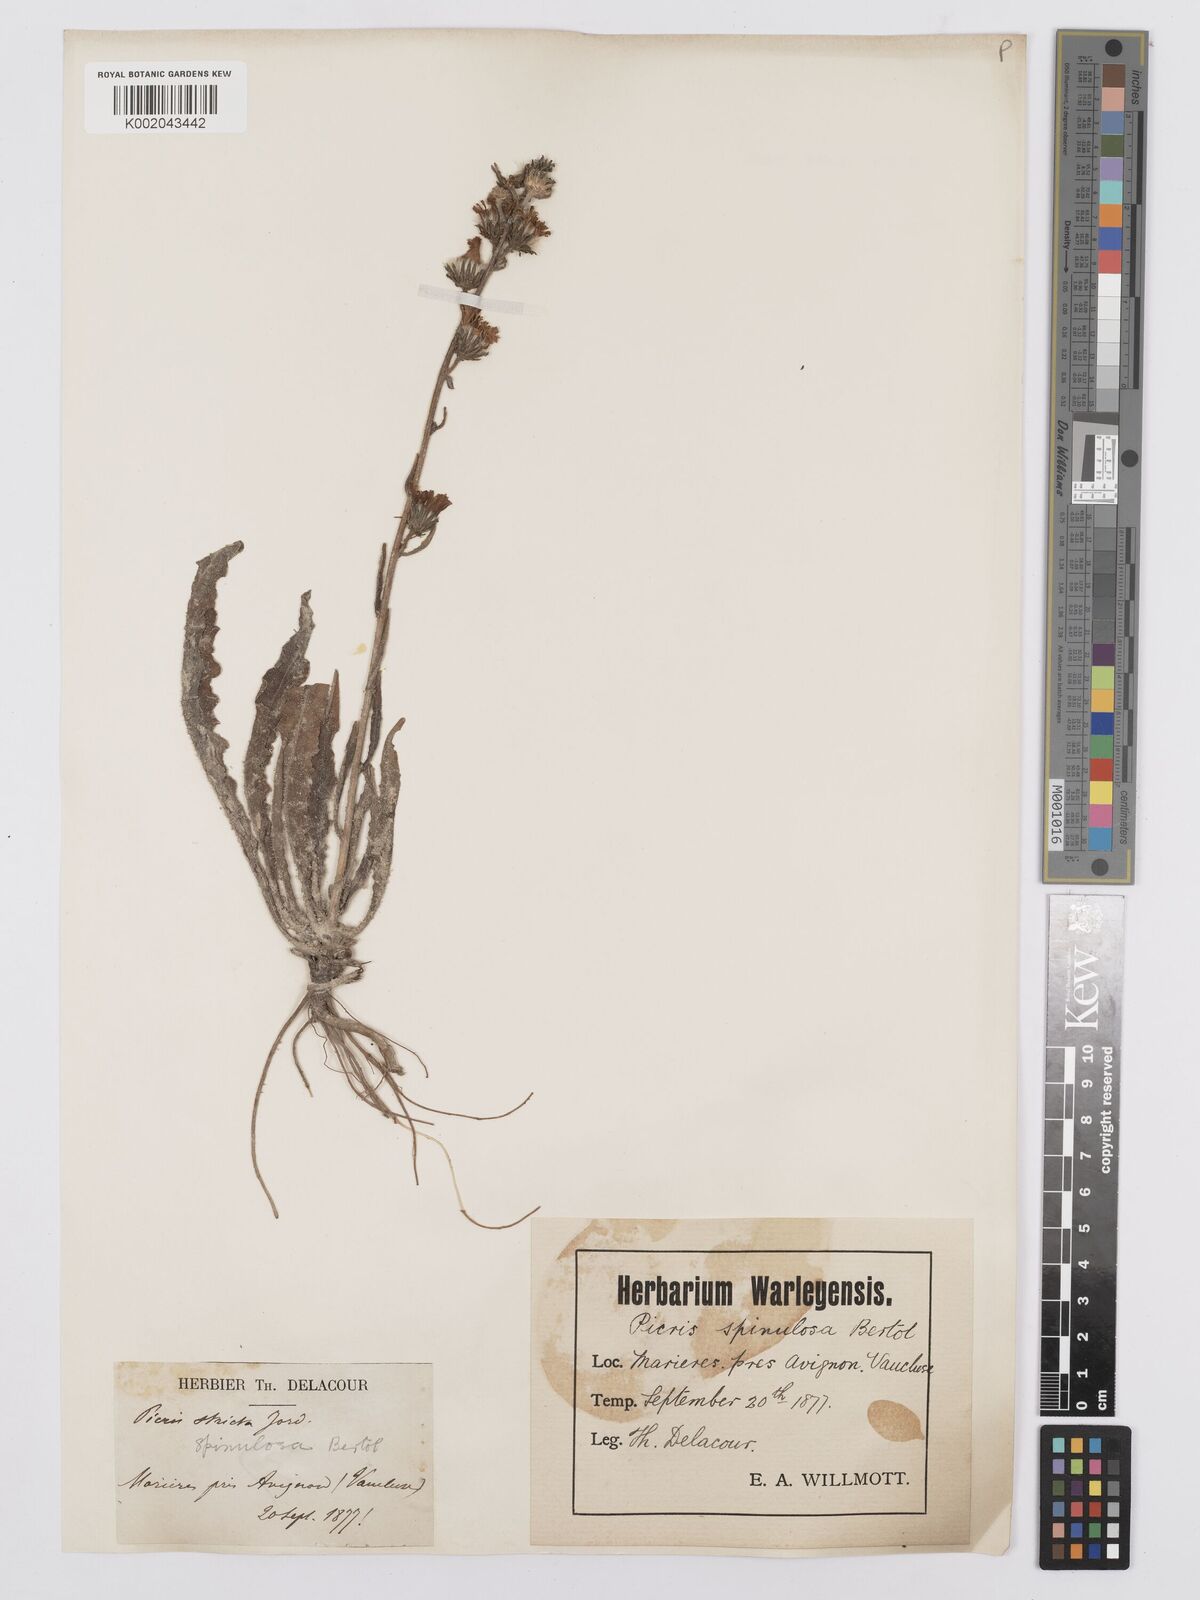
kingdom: Plantae
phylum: Tracheophyta
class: Magnoliopsida
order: Asterales
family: Asteraceae
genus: Picris
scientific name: Picris hieracioides
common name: Hawkweed oxtongue
